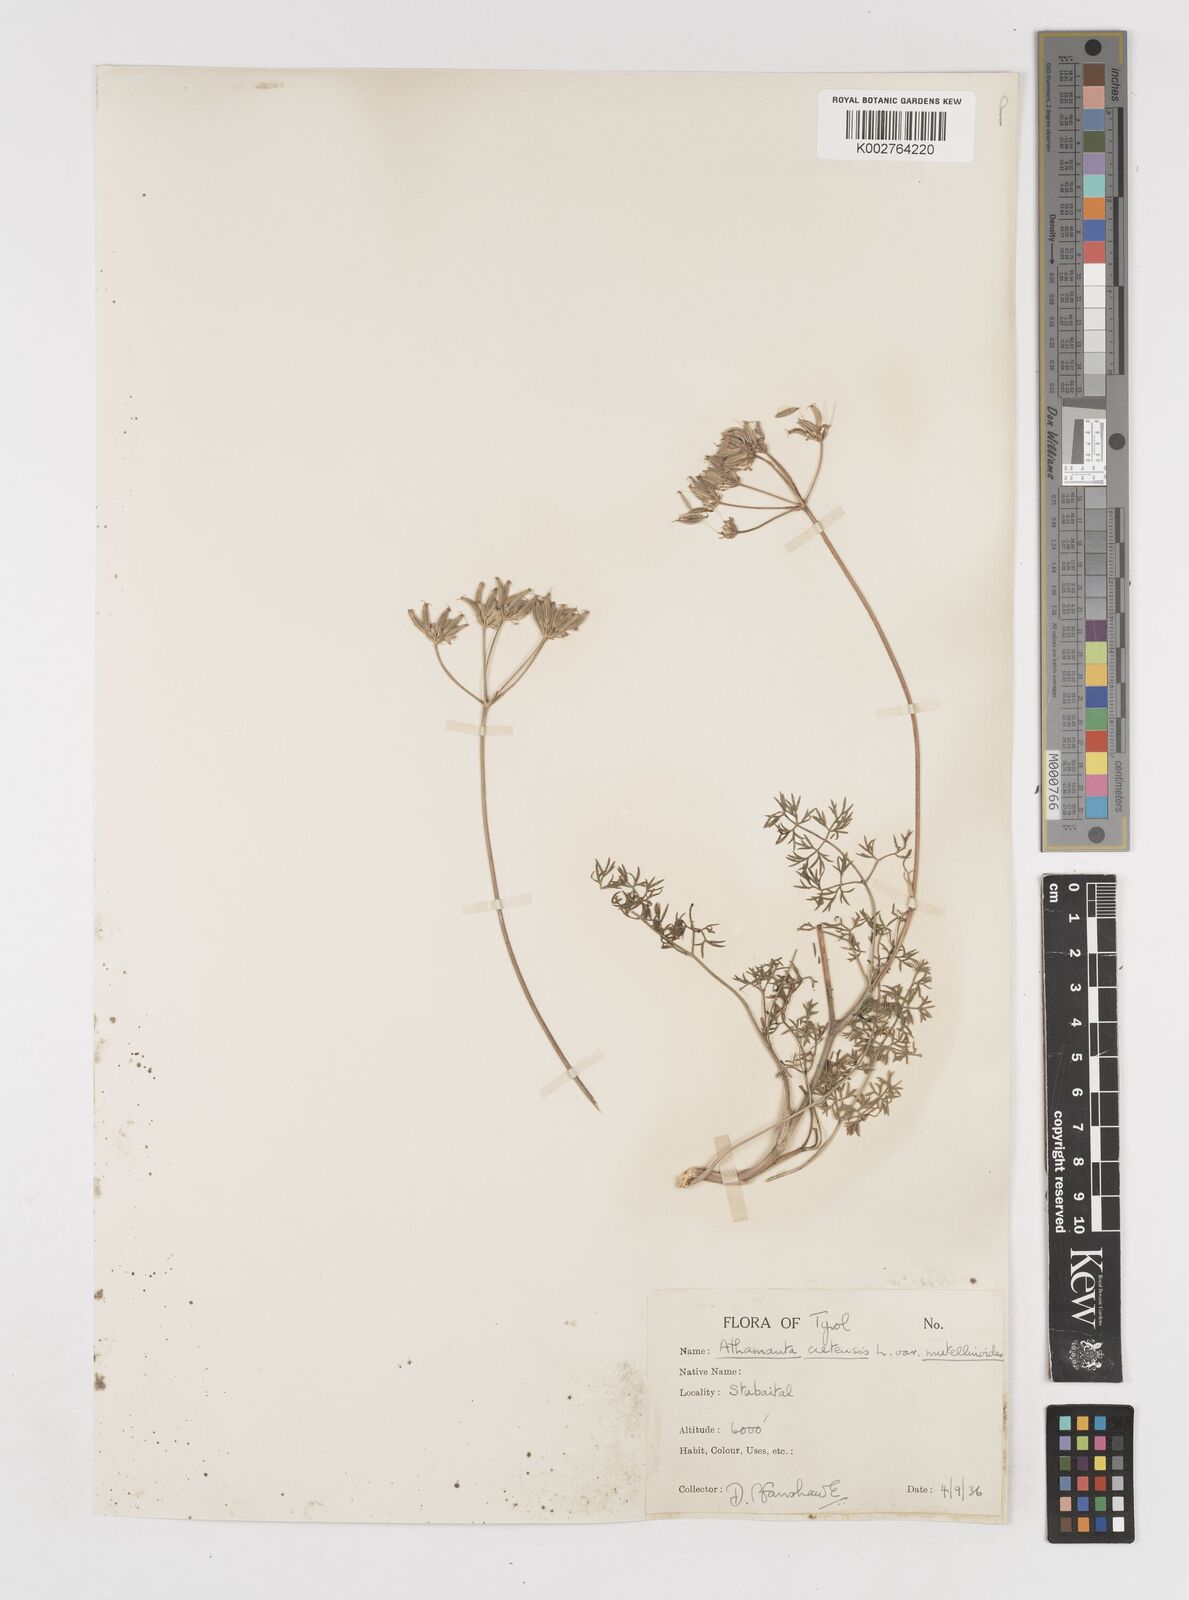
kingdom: Plantae
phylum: Tracheophyta
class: Magnoliopsida
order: Apiales
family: Apiaceae
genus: Athamanta
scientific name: Athamanta cretensis
